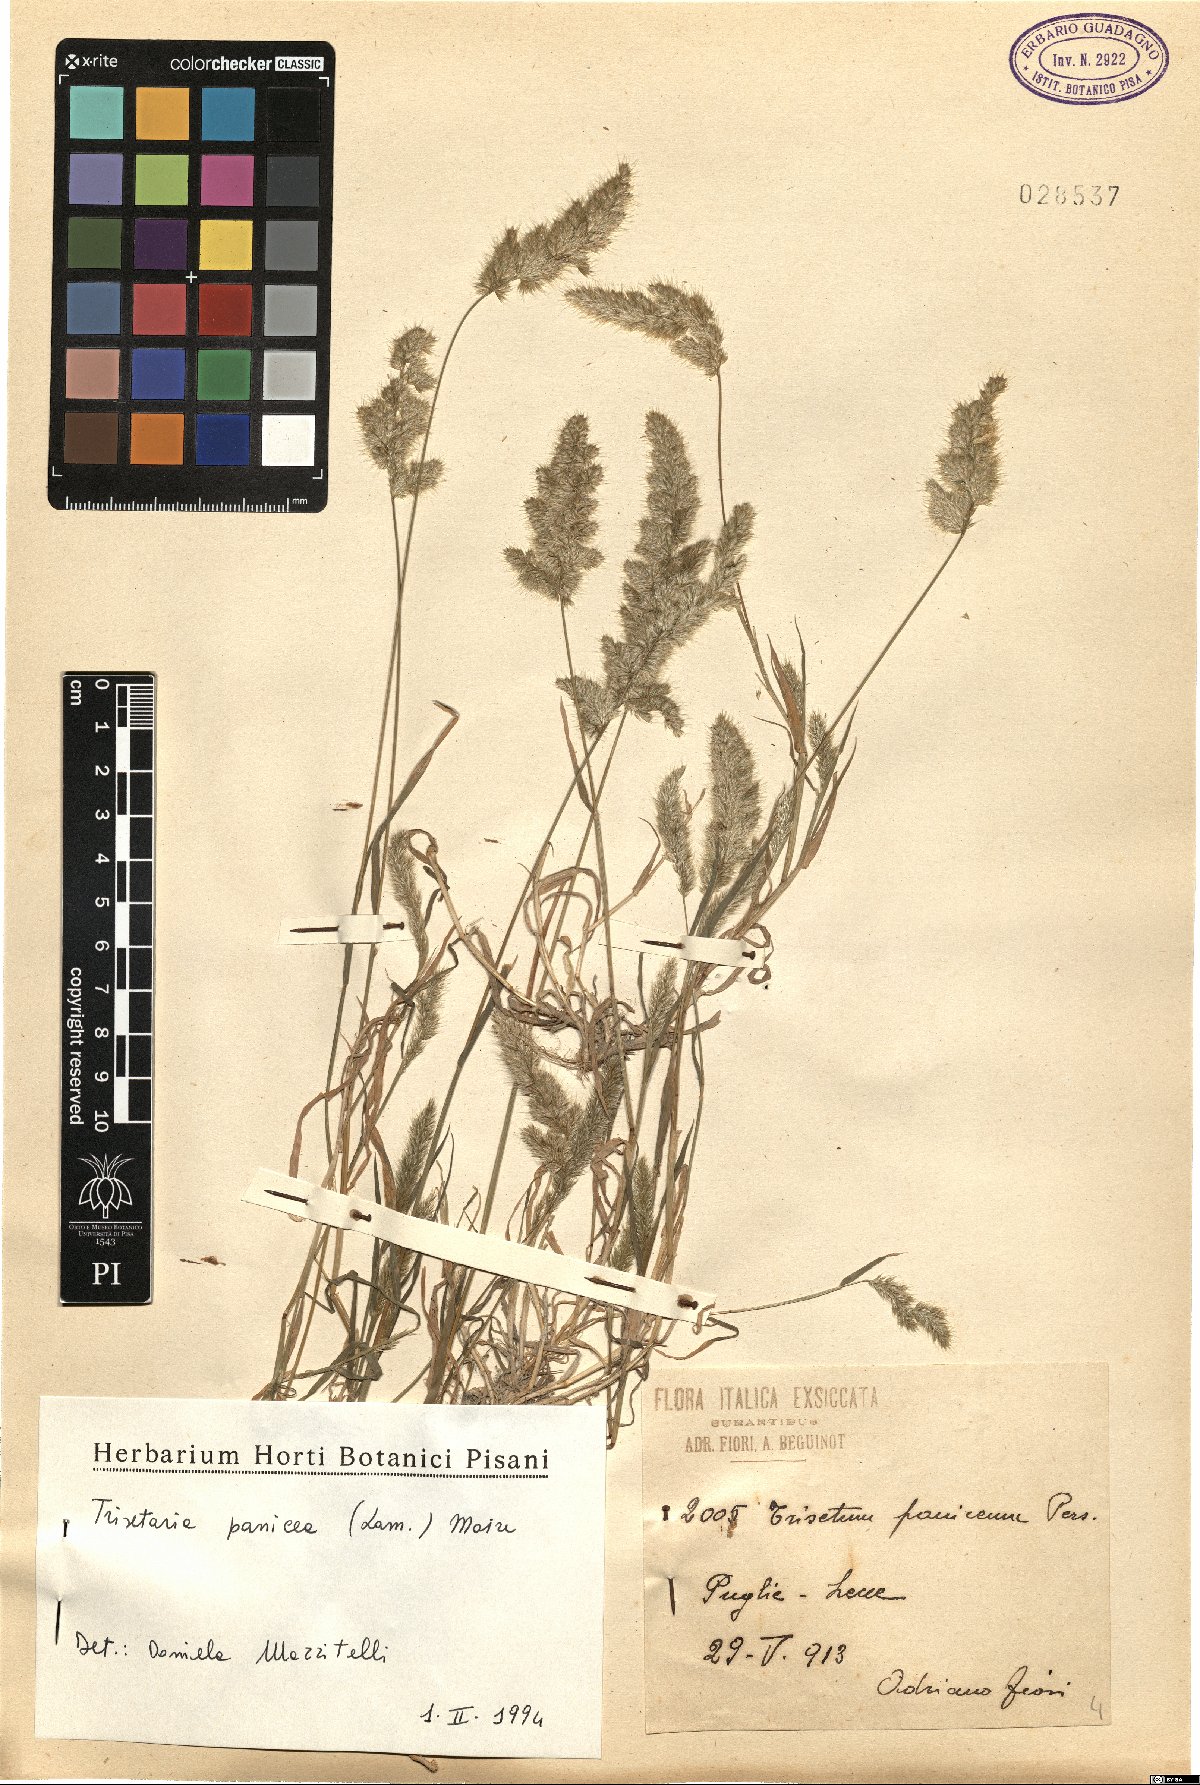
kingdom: Plantae
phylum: Tracheophyta
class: Liliopsida
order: Poales
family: Poaceae
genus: Trisetaria
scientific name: Trisetaria panicea
